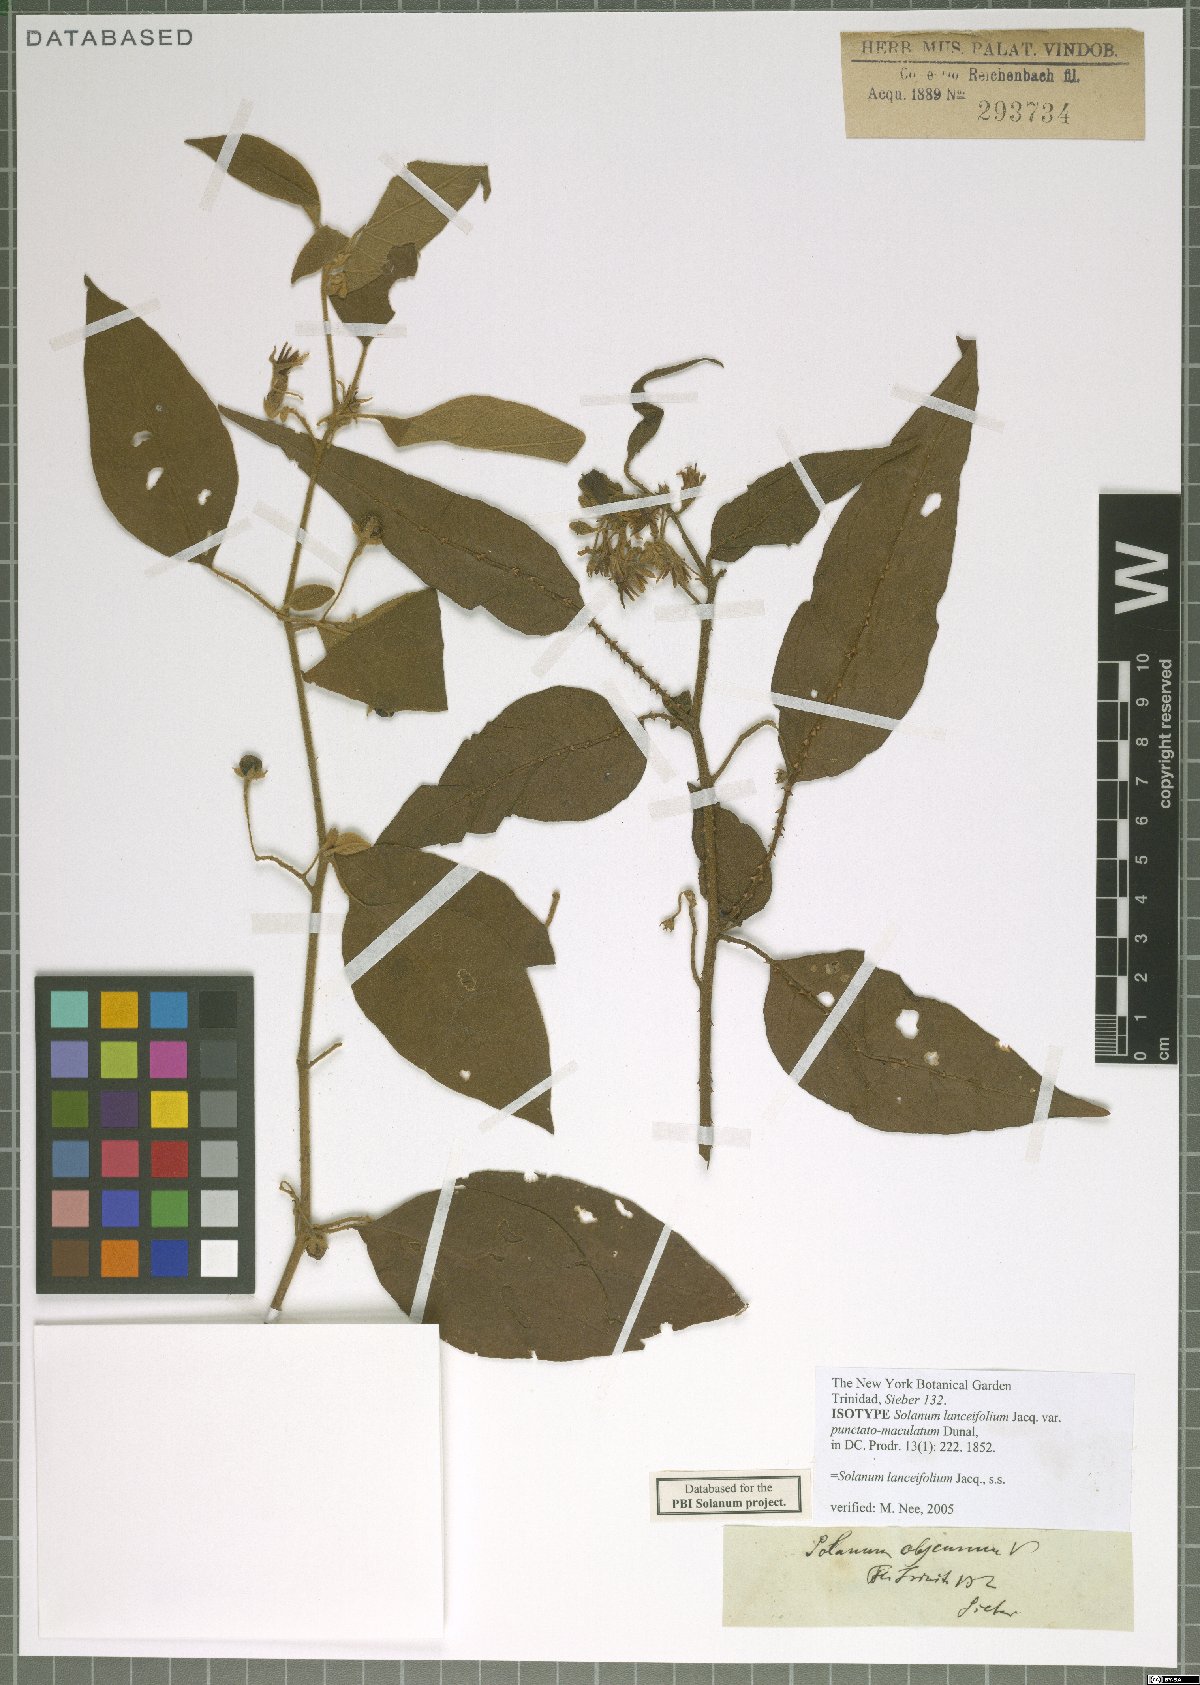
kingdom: Plantae
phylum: Tracheophyta
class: Magnoliopsida
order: Solanales
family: Solanaceae
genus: Solanum
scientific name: Solanum lanceifolium
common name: Lanceleaf nightshade
